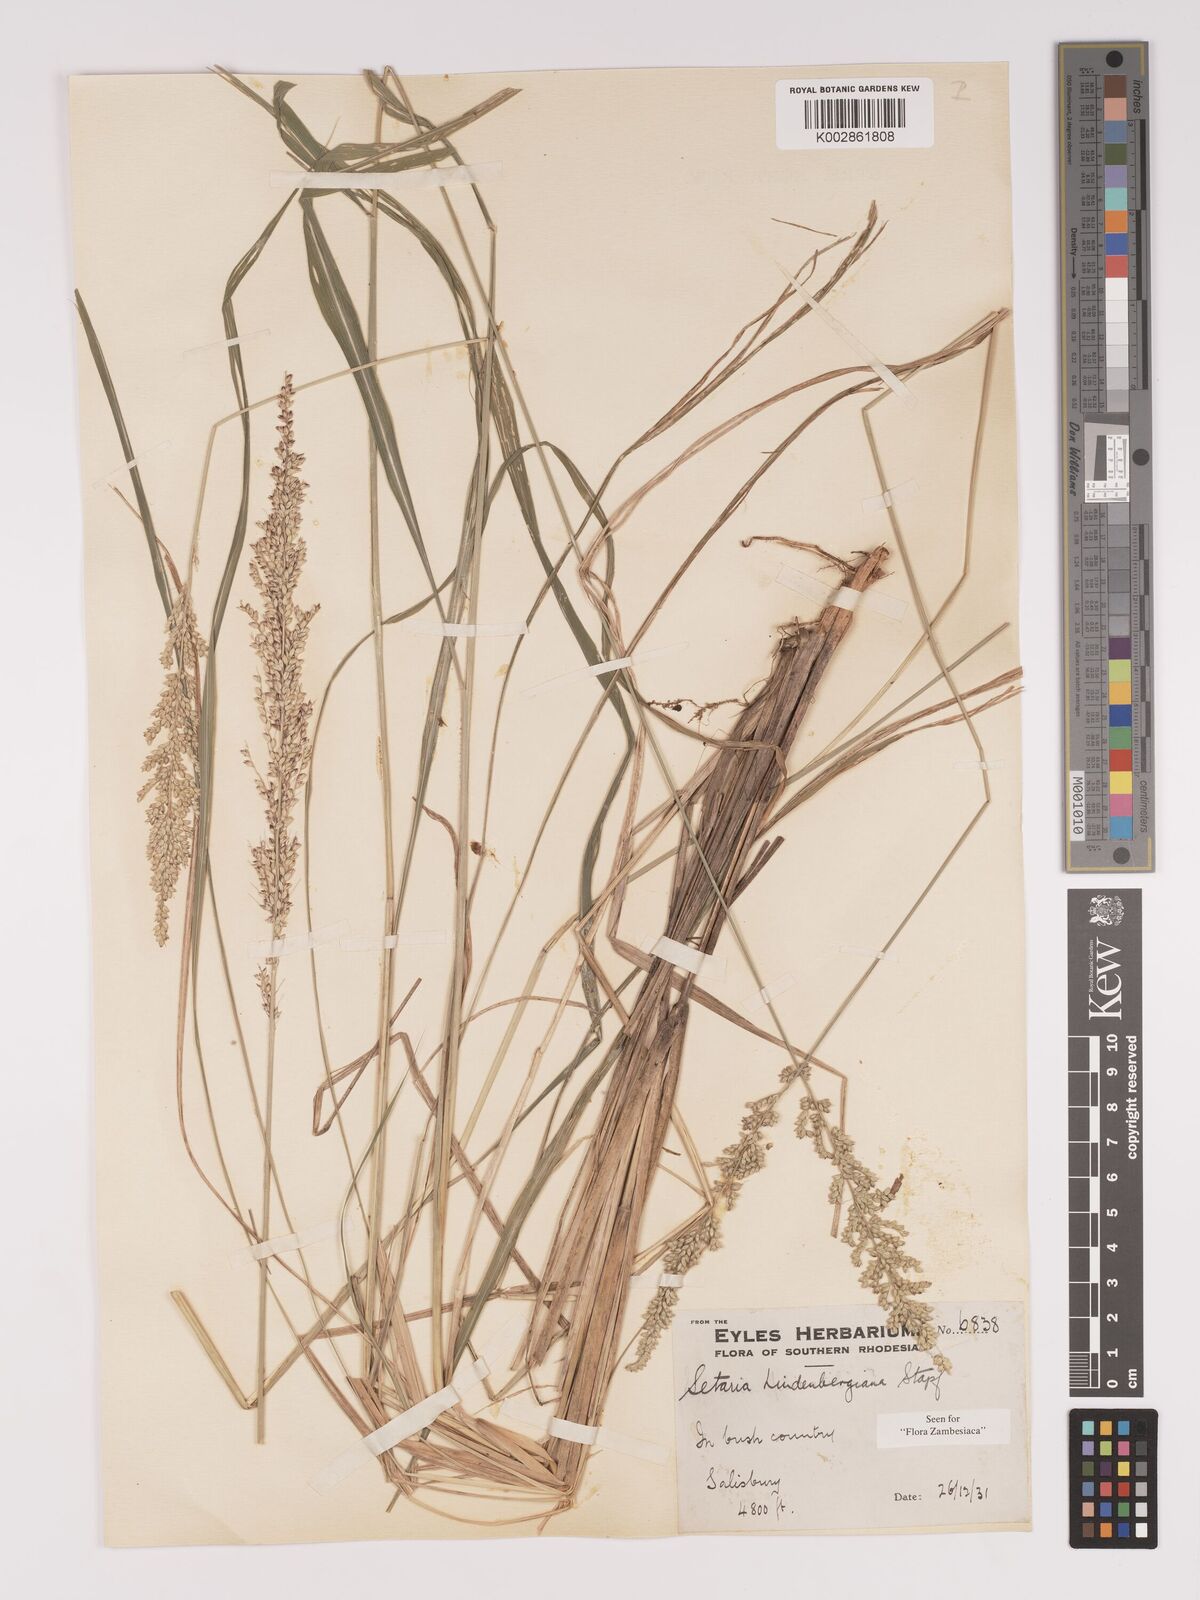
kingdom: Plantae
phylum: Tracheophyta
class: Liliopsida
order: Poales
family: Poaceae
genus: Setaria
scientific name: Setaria lindenbergiana
